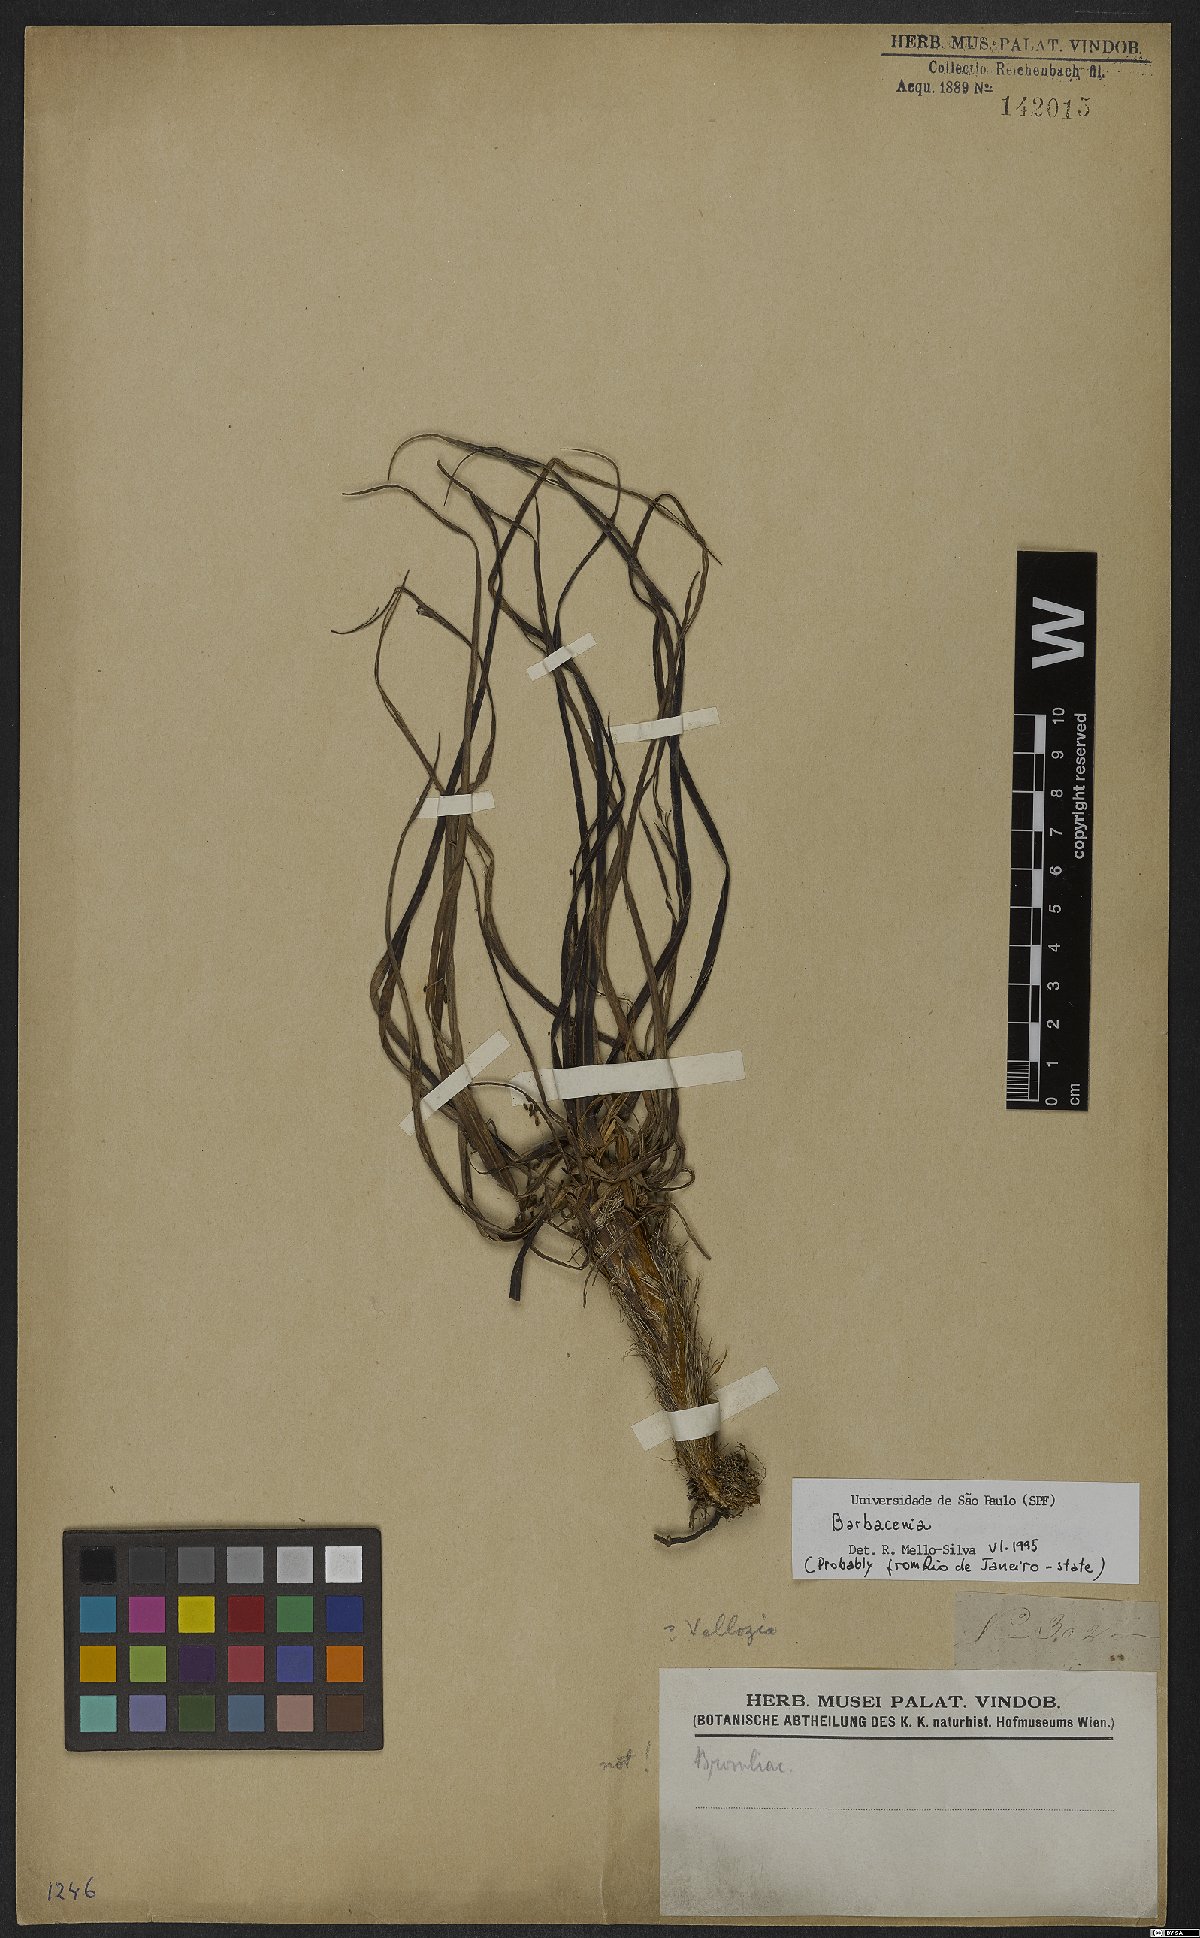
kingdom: Plantae
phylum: Tracheophyta
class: Liliopsida
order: Pandanales
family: Velloziaceae
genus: Barbacenia
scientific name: Barbacenia
